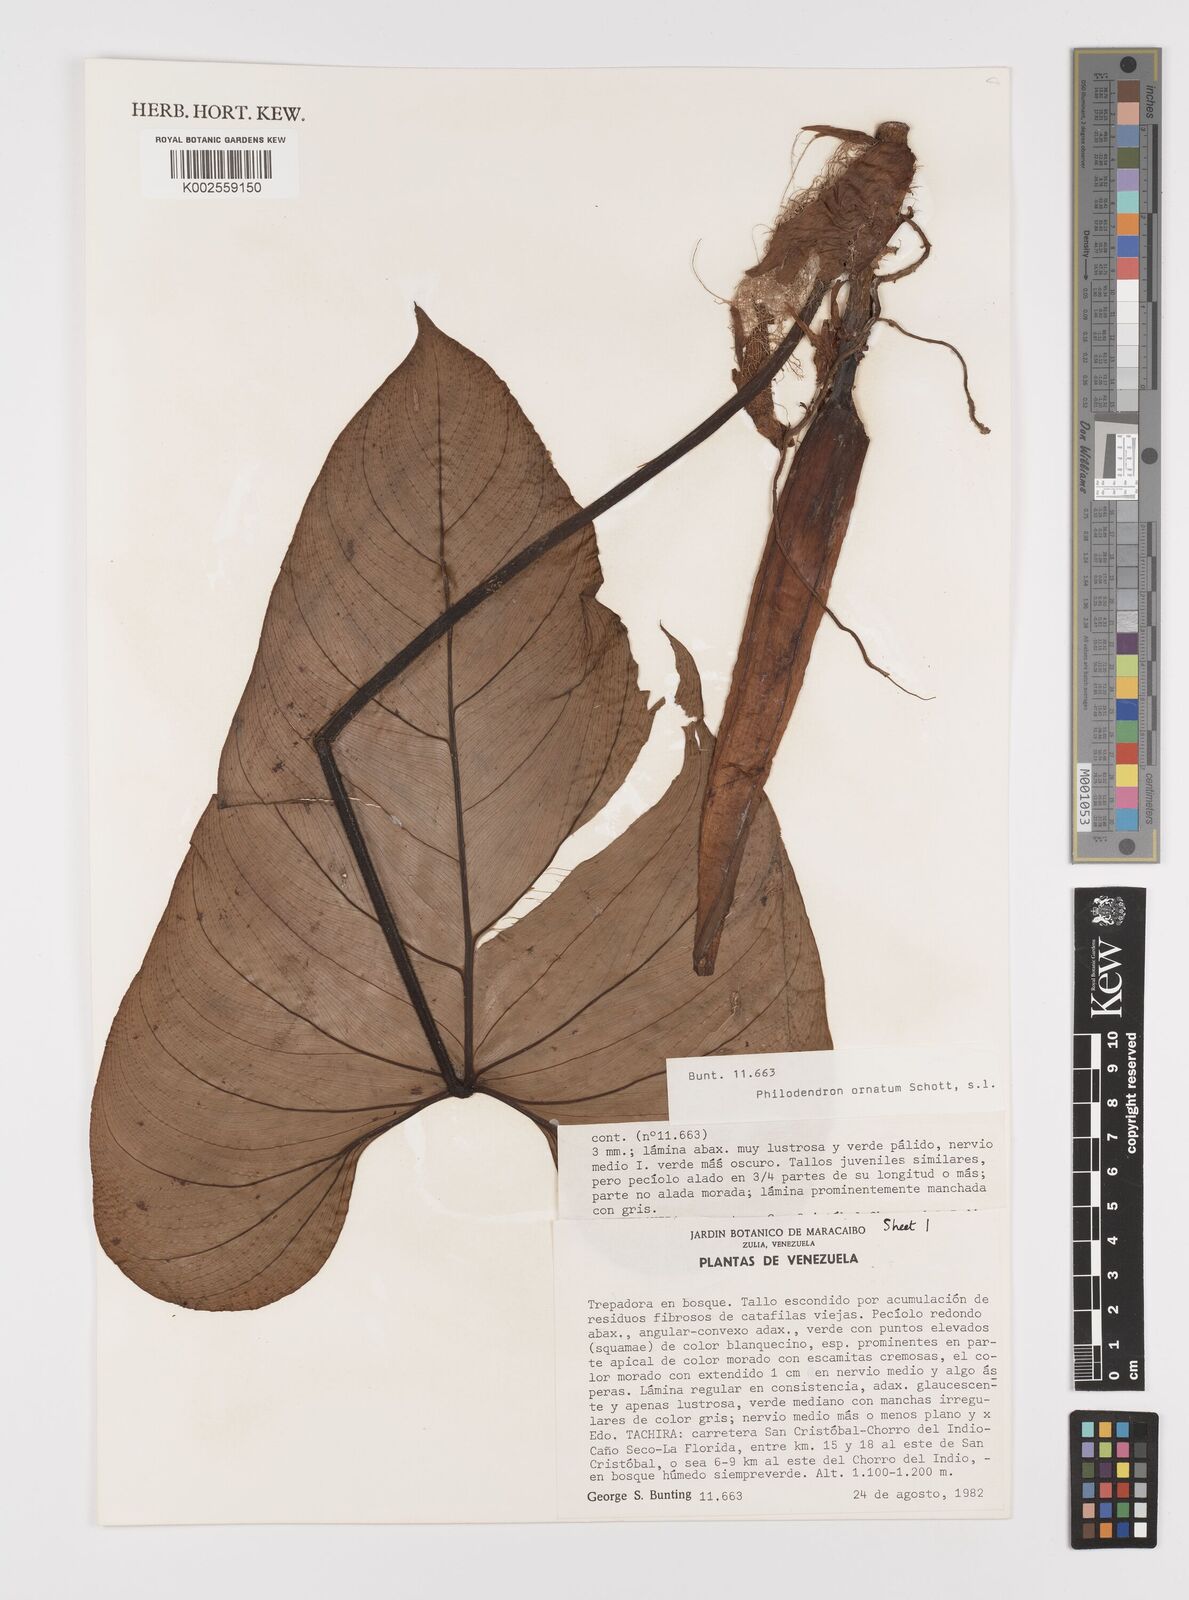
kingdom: Plantae
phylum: Tracheophyta
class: Liliopsida
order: Alismatales
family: Araceae
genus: Philodendron
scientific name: Philodendron ornatum
